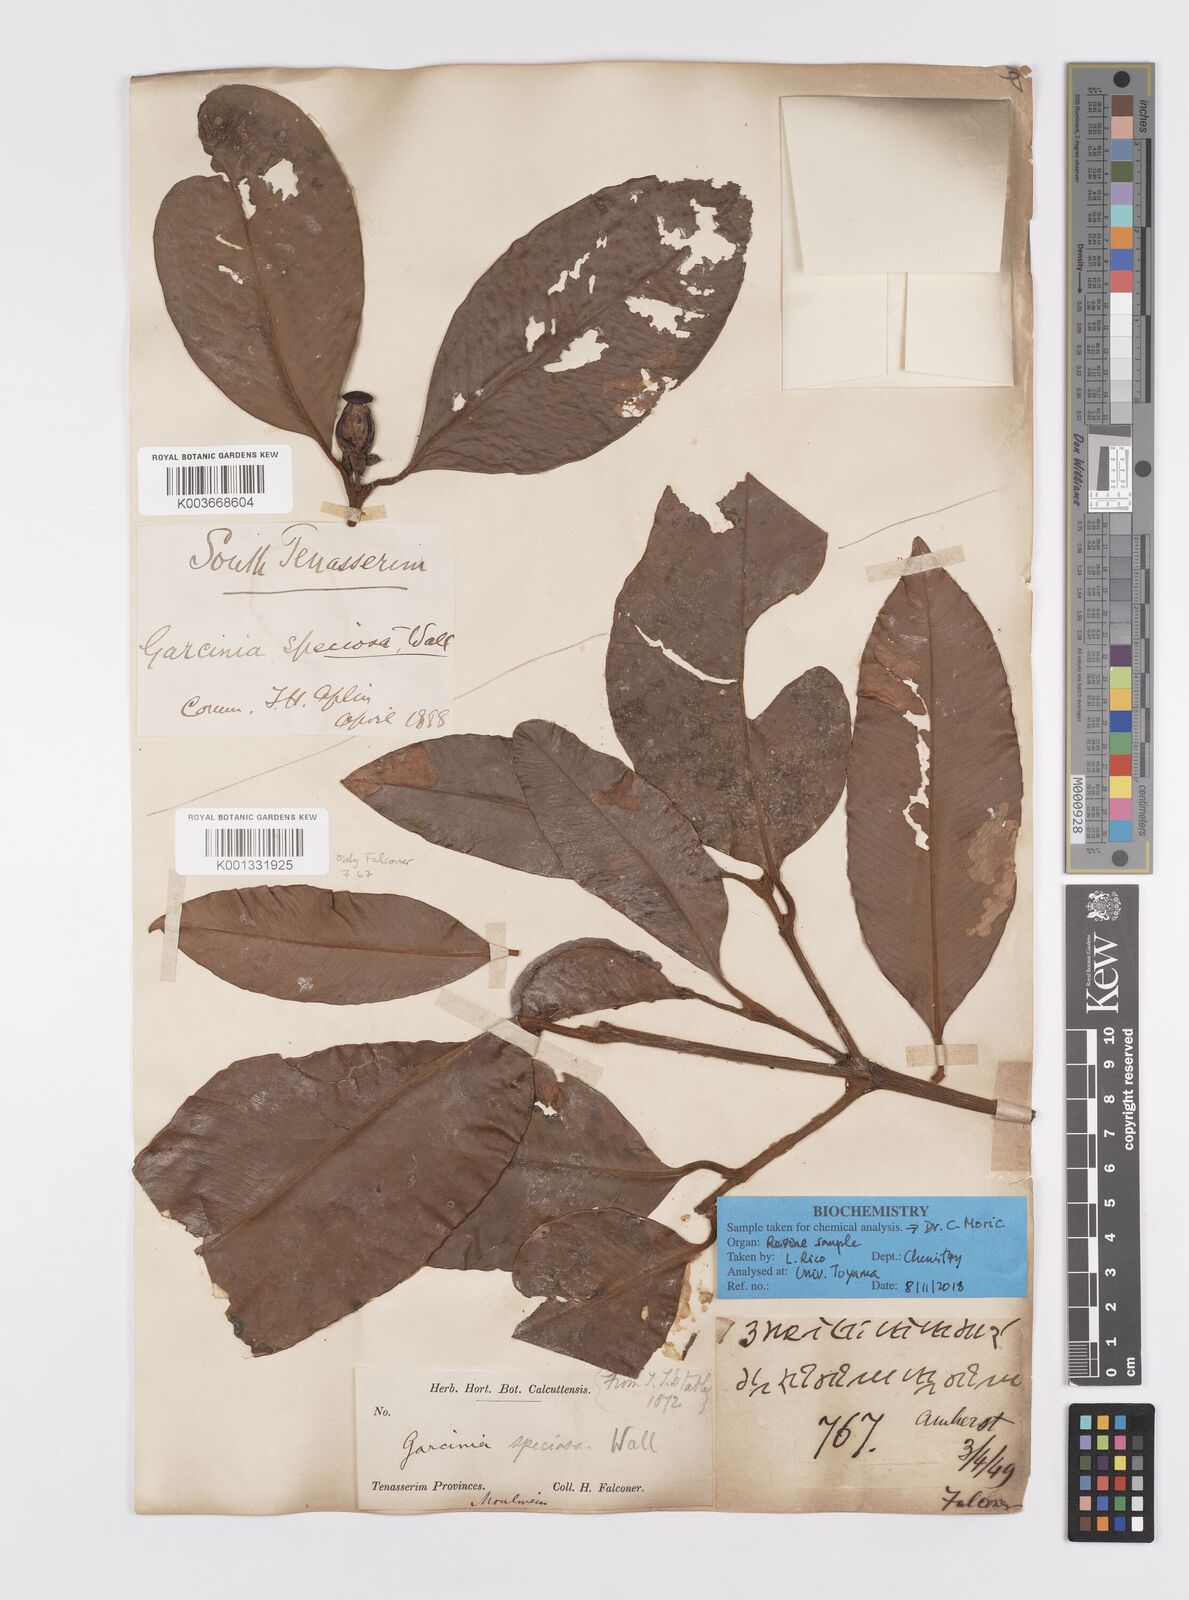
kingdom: Plantae
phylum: Tracheophyta
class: Magnoliopsida
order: Malpighiales
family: Clusiaceae
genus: Garcinia
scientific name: Garcinia celebica
